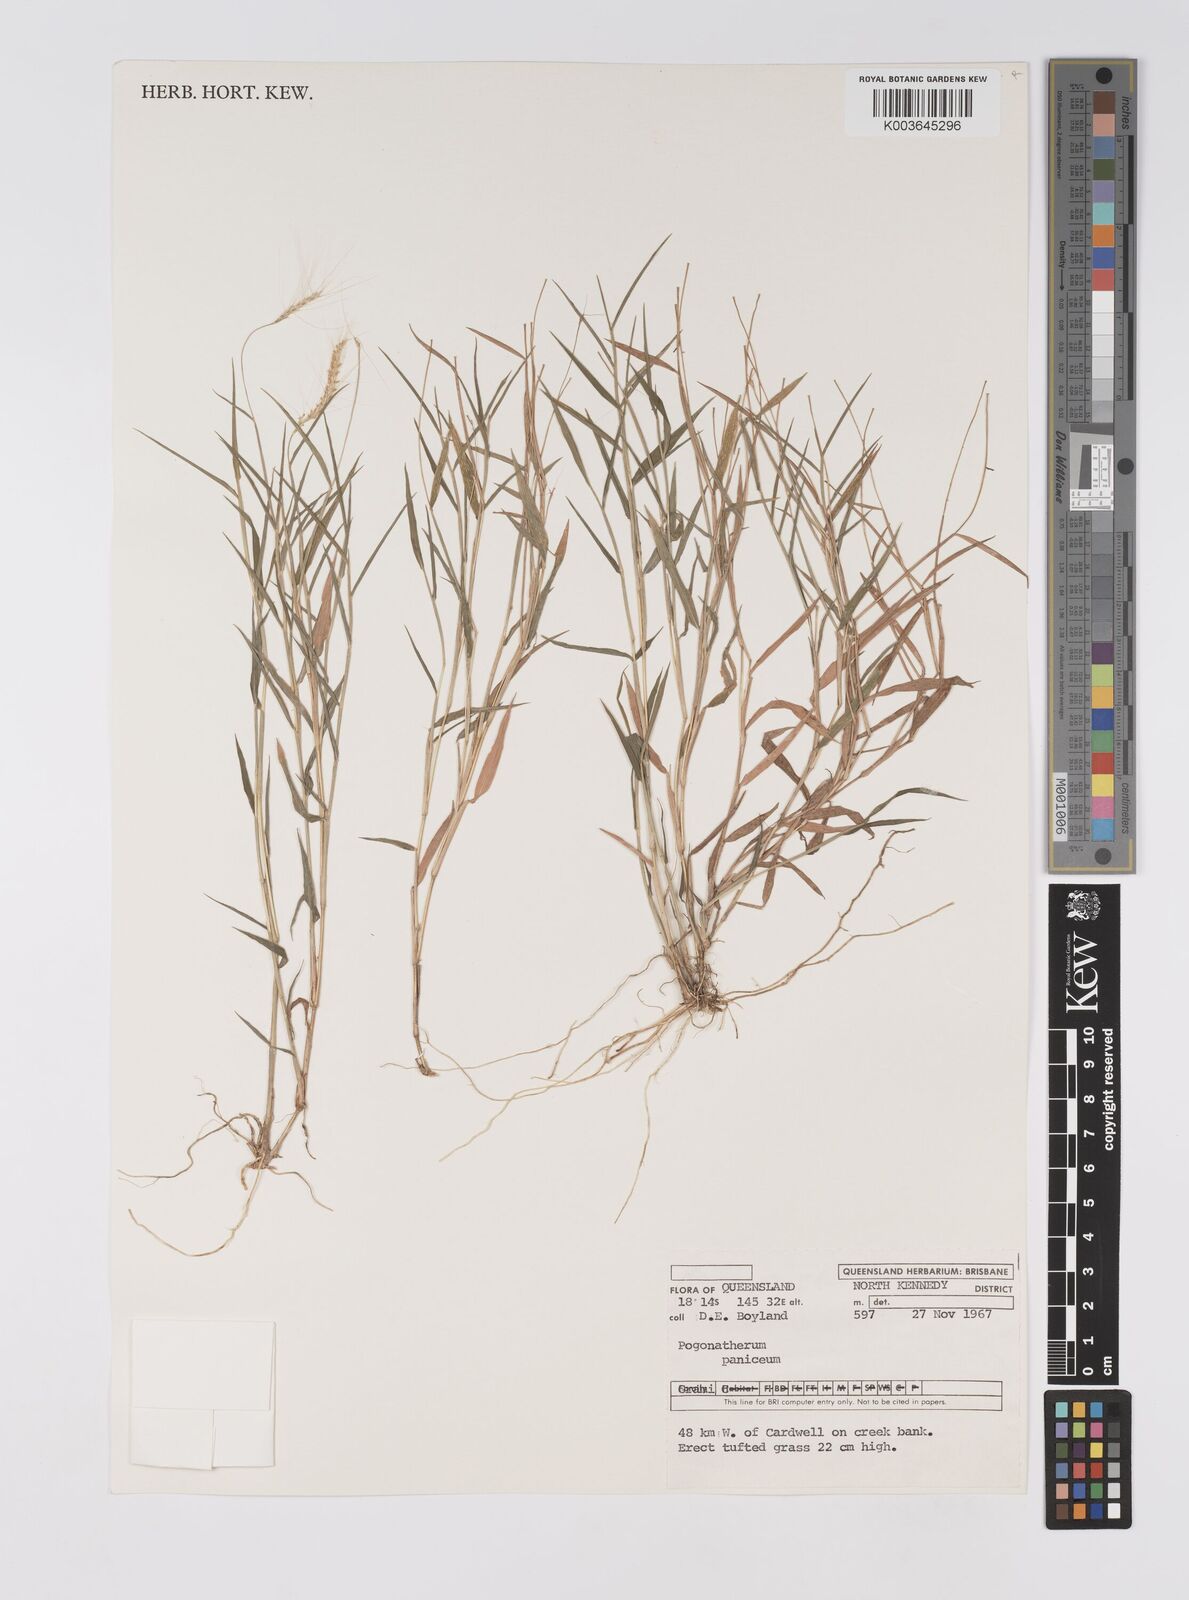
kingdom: Plantae
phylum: Tracheophyta
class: Liliopsida
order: Poales
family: Poaceae
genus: Pogonatherum
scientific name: Pogonatherum paniceum
